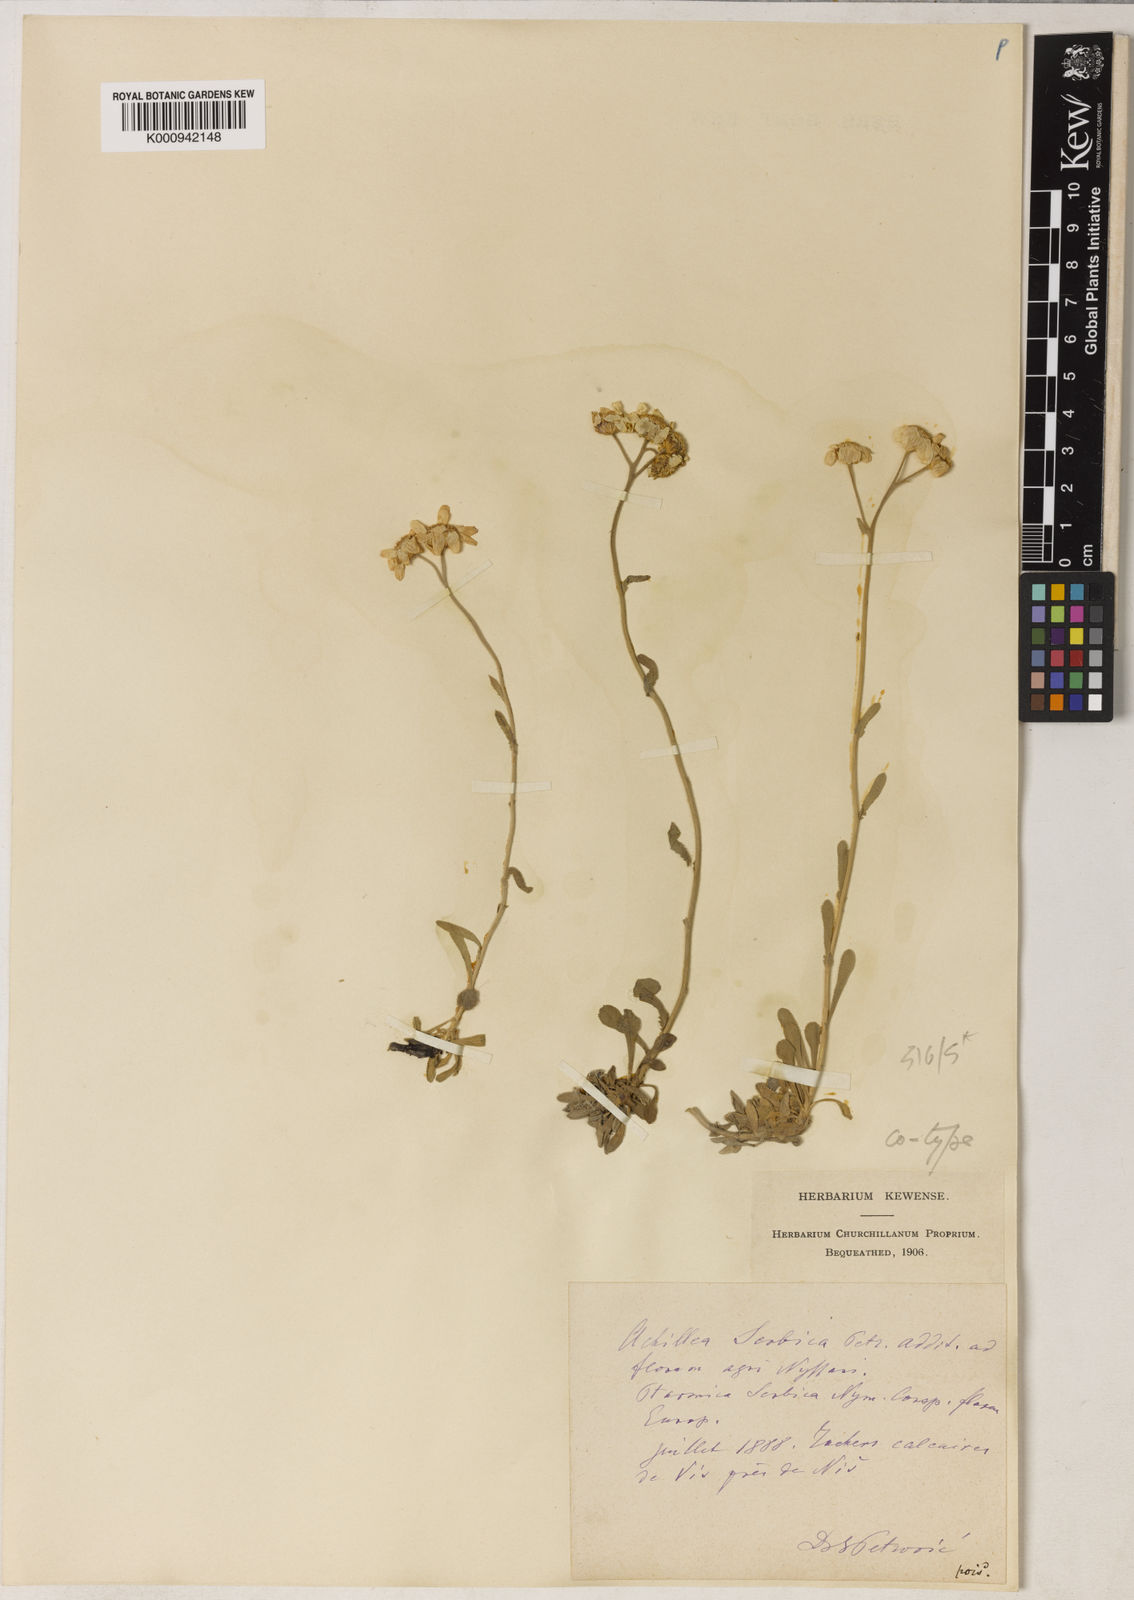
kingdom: Plantae
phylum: Tracheophyta
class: Magnoliopsida
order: Asterales
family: Asteraceae
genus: Achillea
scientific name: Achillea
